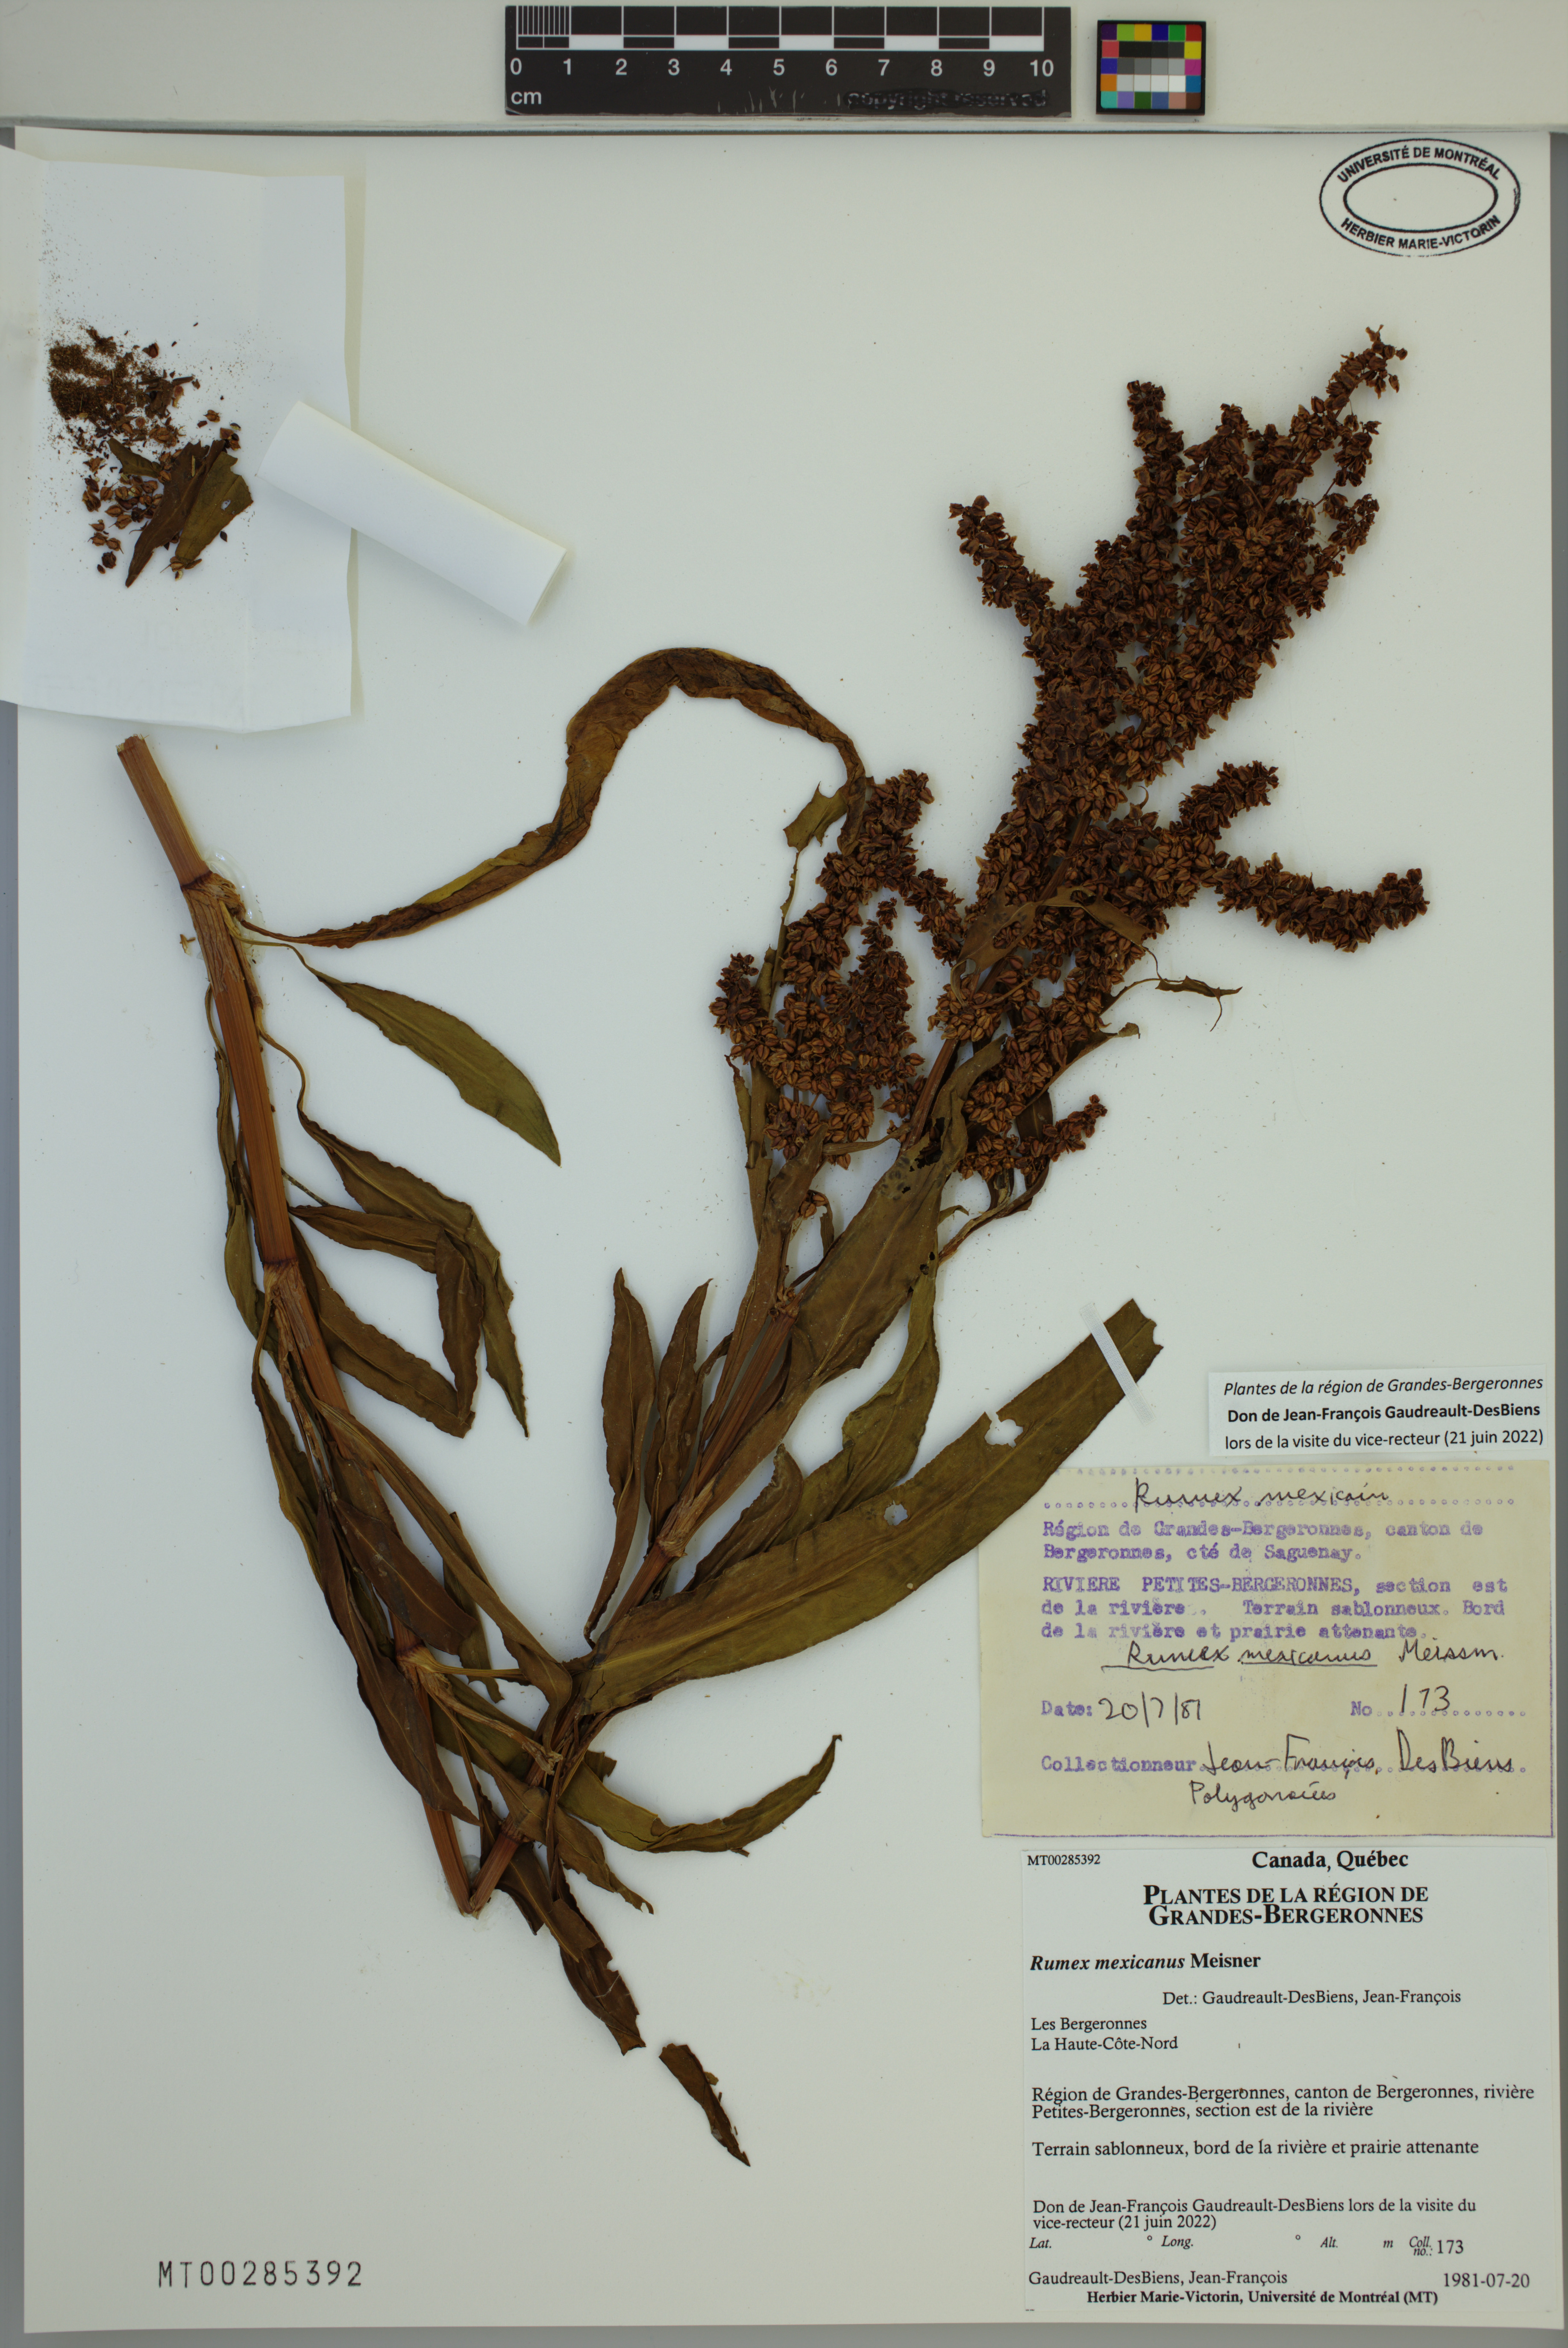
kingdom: Plantae
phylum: Tracheophyta
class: Magnoliopsida
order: Caryophyllales
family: Polygonaceae
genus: Rumex
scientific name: Rumex triangulivalvis
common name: Triangular-valve dock
